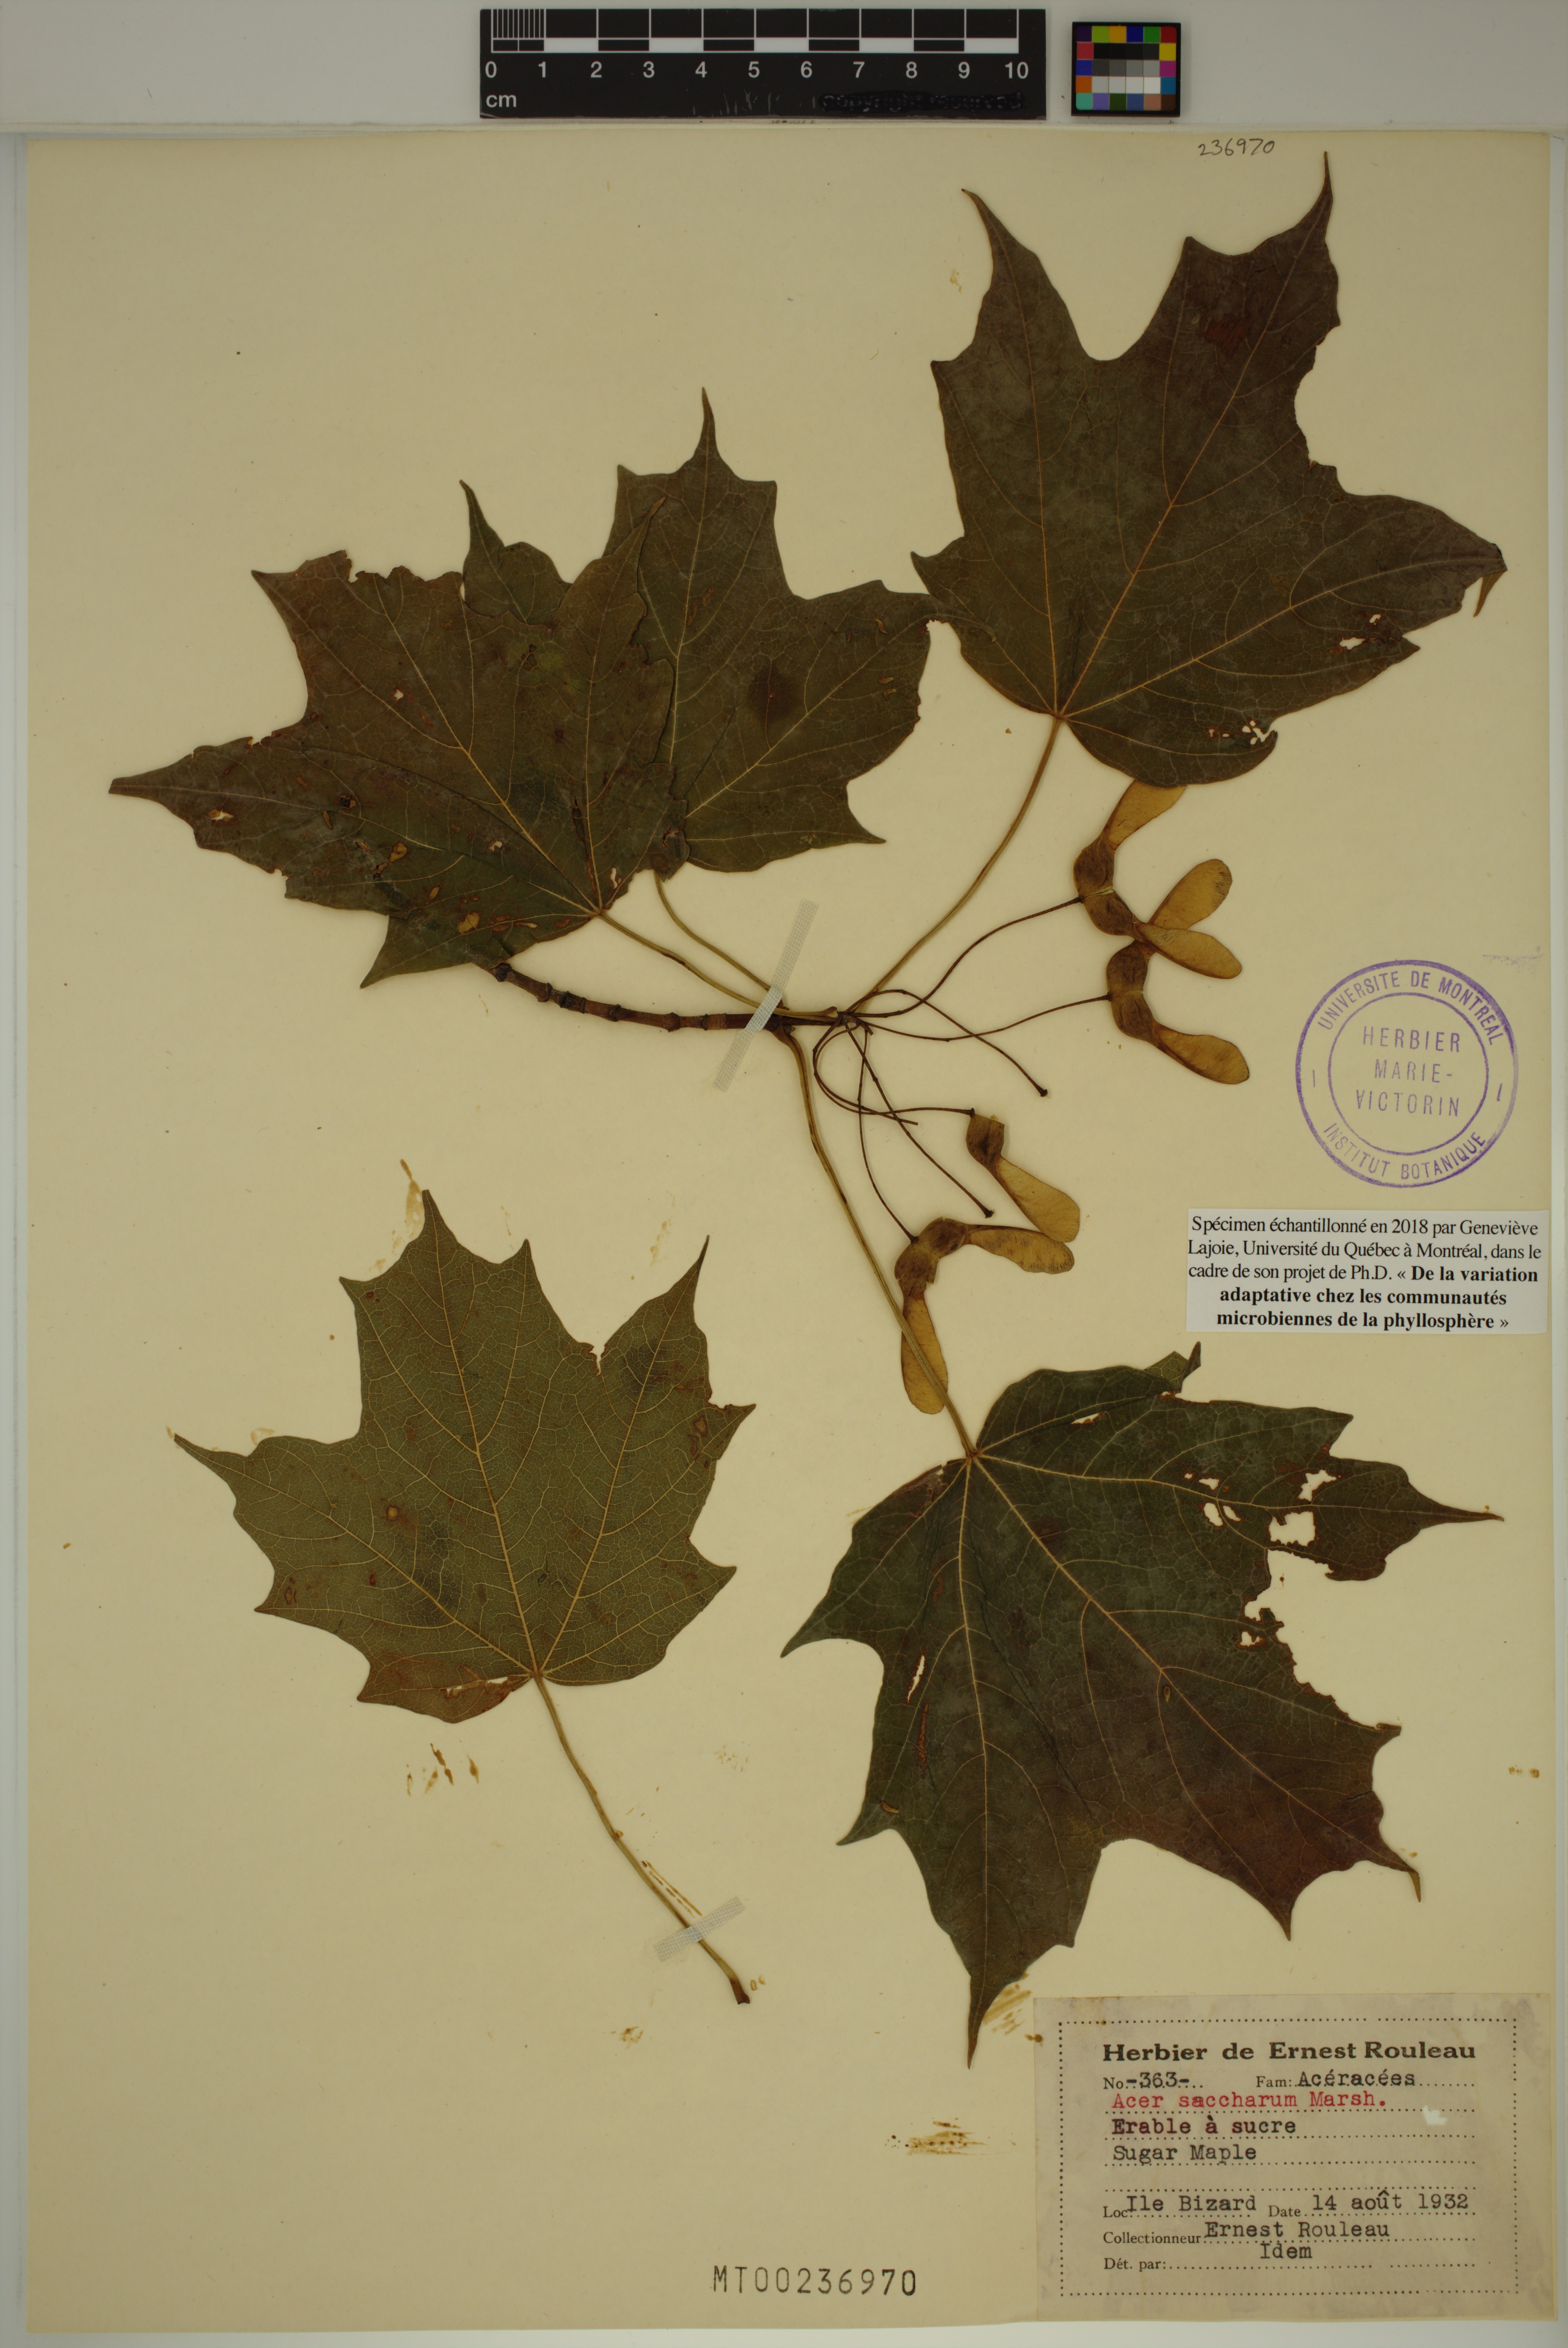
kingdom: Plantae
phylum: Tracheophyta
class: Magnoliopsida
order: Sapindales
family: Sapindaceae
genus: Acer
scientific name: Acer saccharum
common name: Sugar maple
